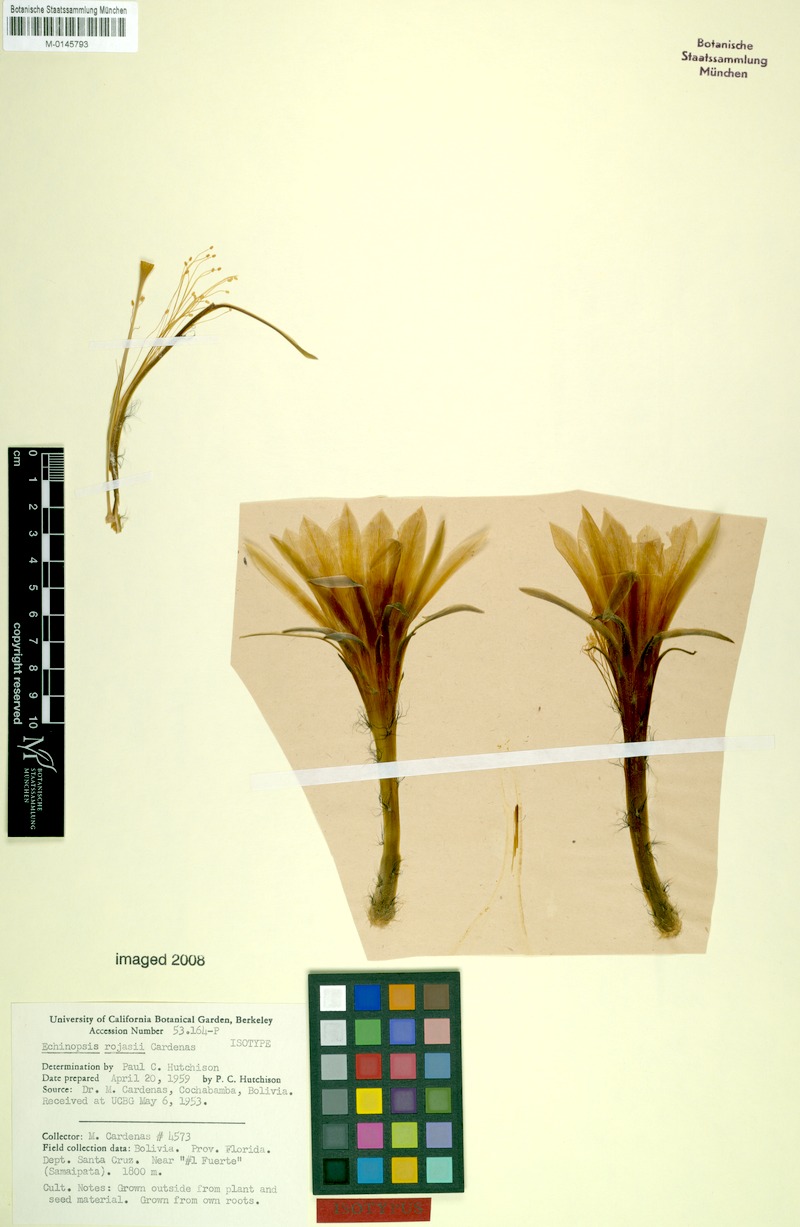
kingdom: Plantae
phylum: Tracheophyta
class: Magnoliopsida
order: Caryophyllales
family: Cactaceae
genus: Lobivia
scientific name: Lobivia obrepanda
